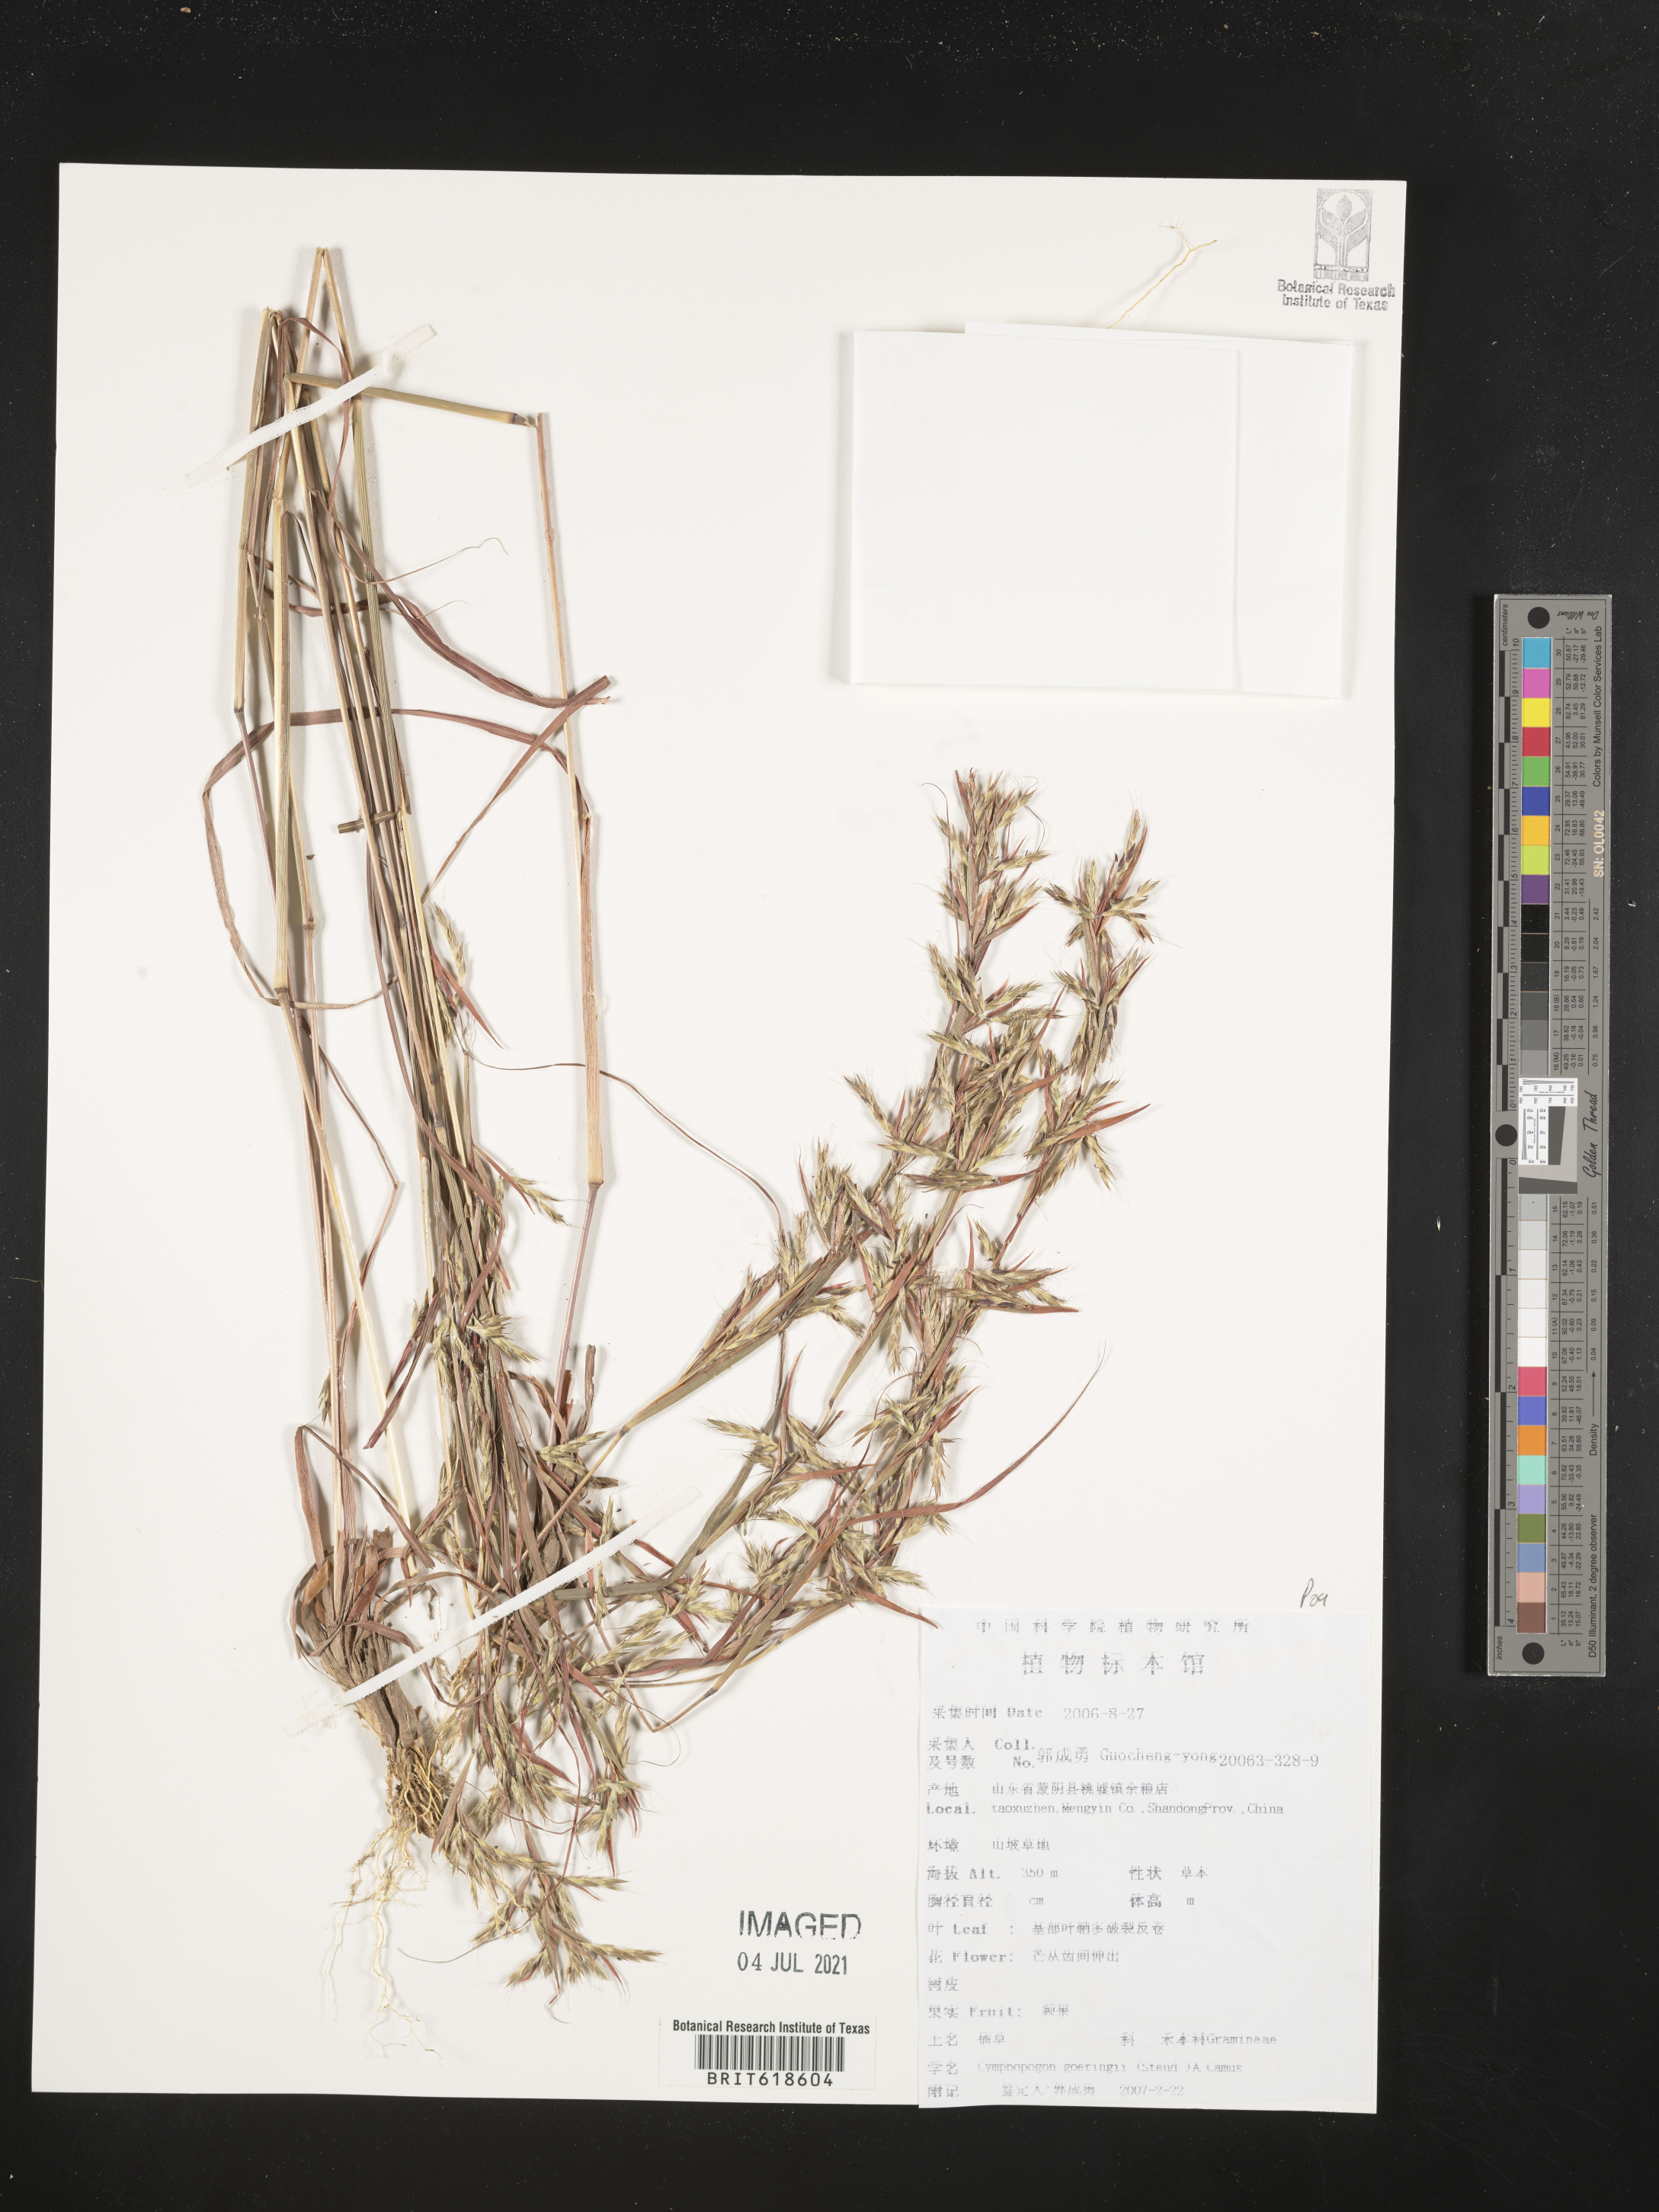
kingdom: Plantae
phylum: Tracheophyta
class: Liliopsida
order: Poales
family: Poaceae
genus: Cymbopogon
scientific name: Cymbopogon goeringii
